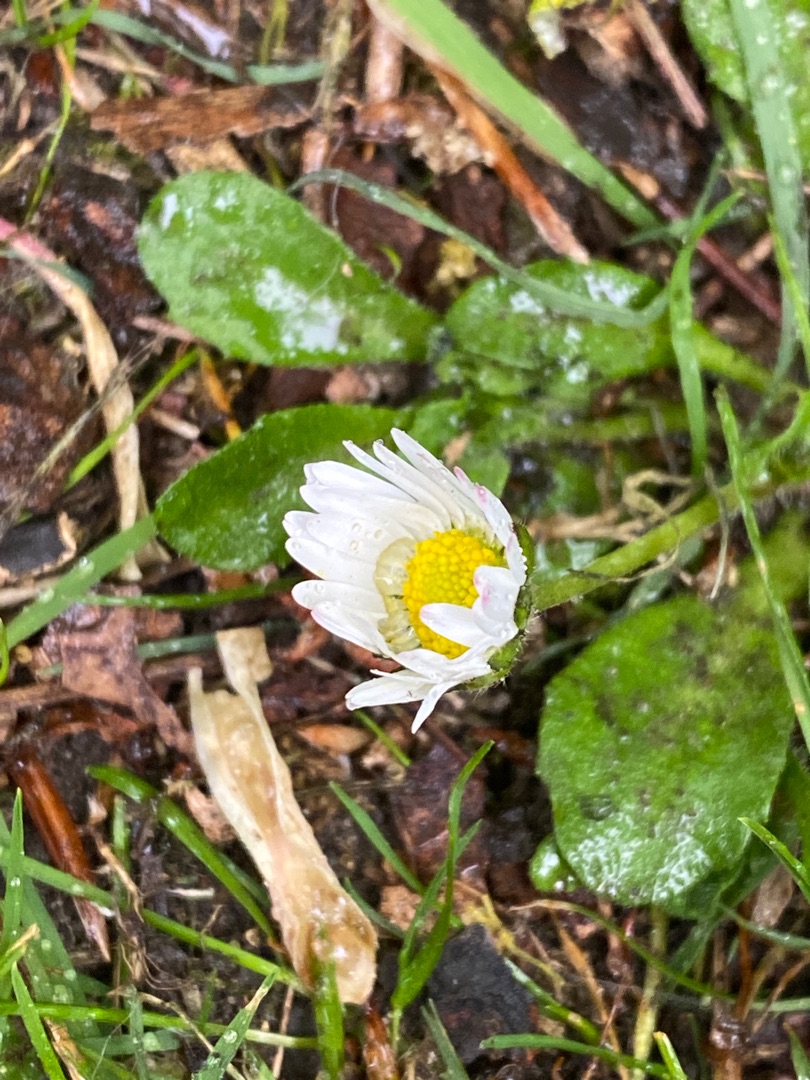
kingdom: Plantae
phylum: Tracheophyta
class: Magnoliopsida
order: Asterales
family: Asteraceae
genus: Bellis
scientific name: Bellis perennis
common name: Tusindfryd
